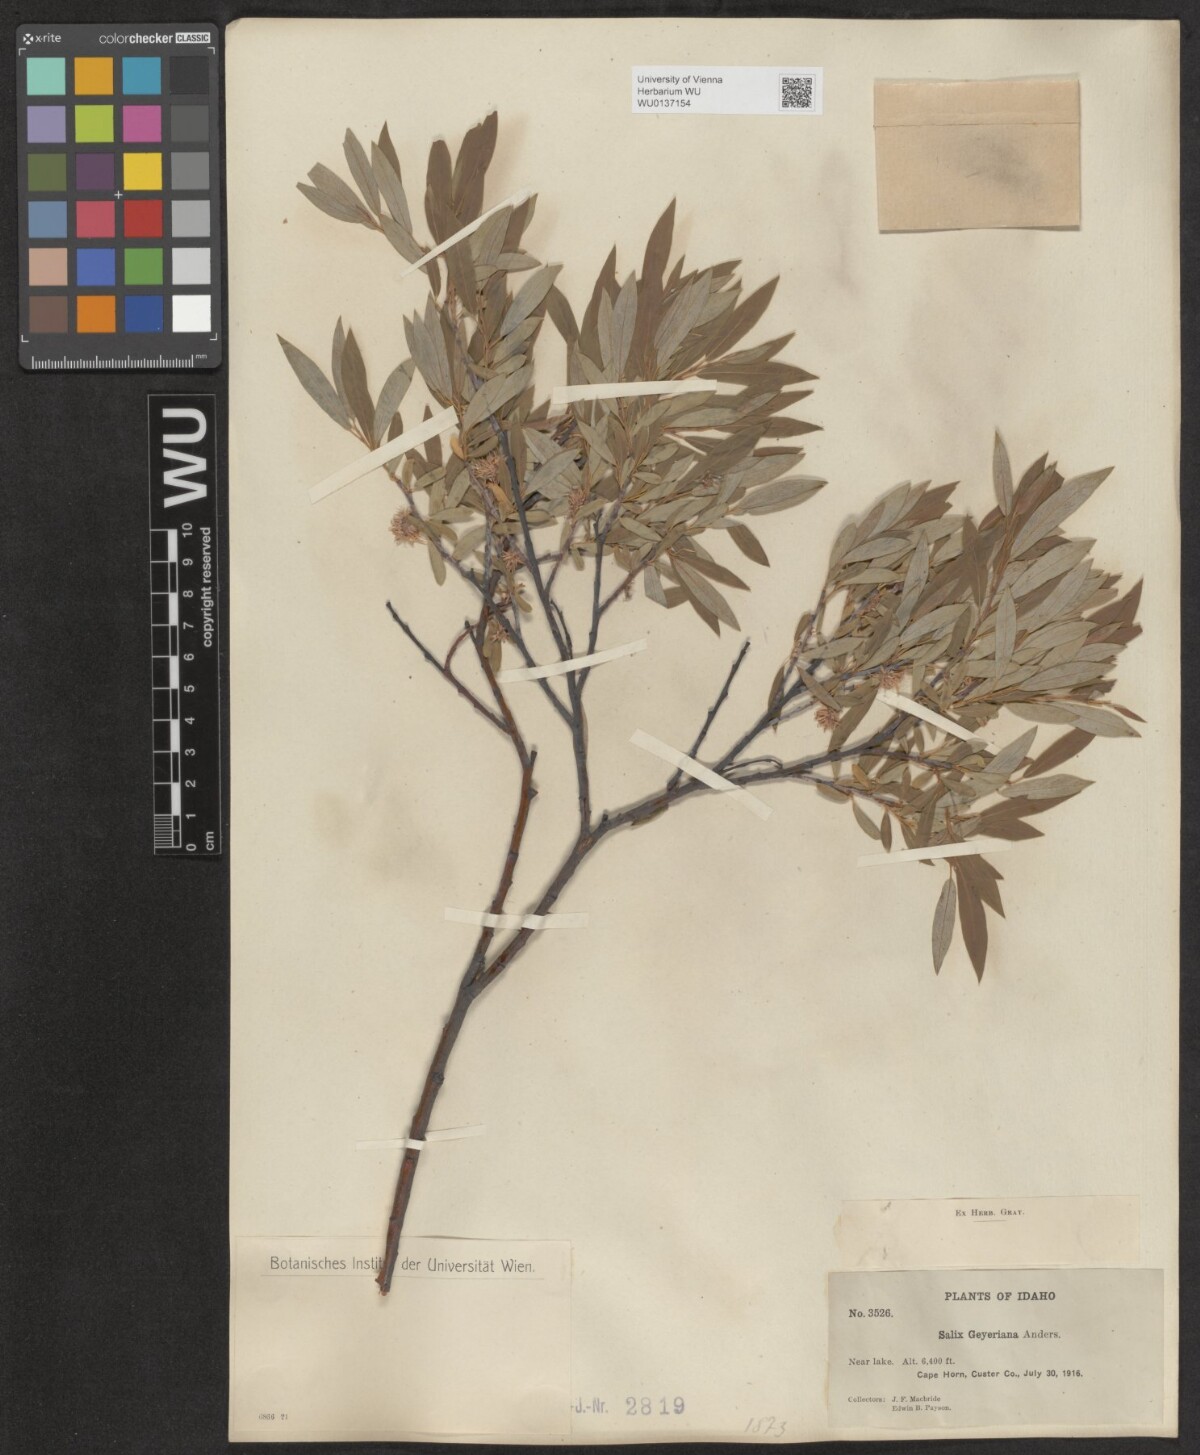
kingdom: Plantae
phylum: Tracheophyta
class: Magnoliopsida
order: Malpighiales
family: Salicaceae
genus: Salix
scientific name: Salix geyeriana
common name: Geyer's willow
